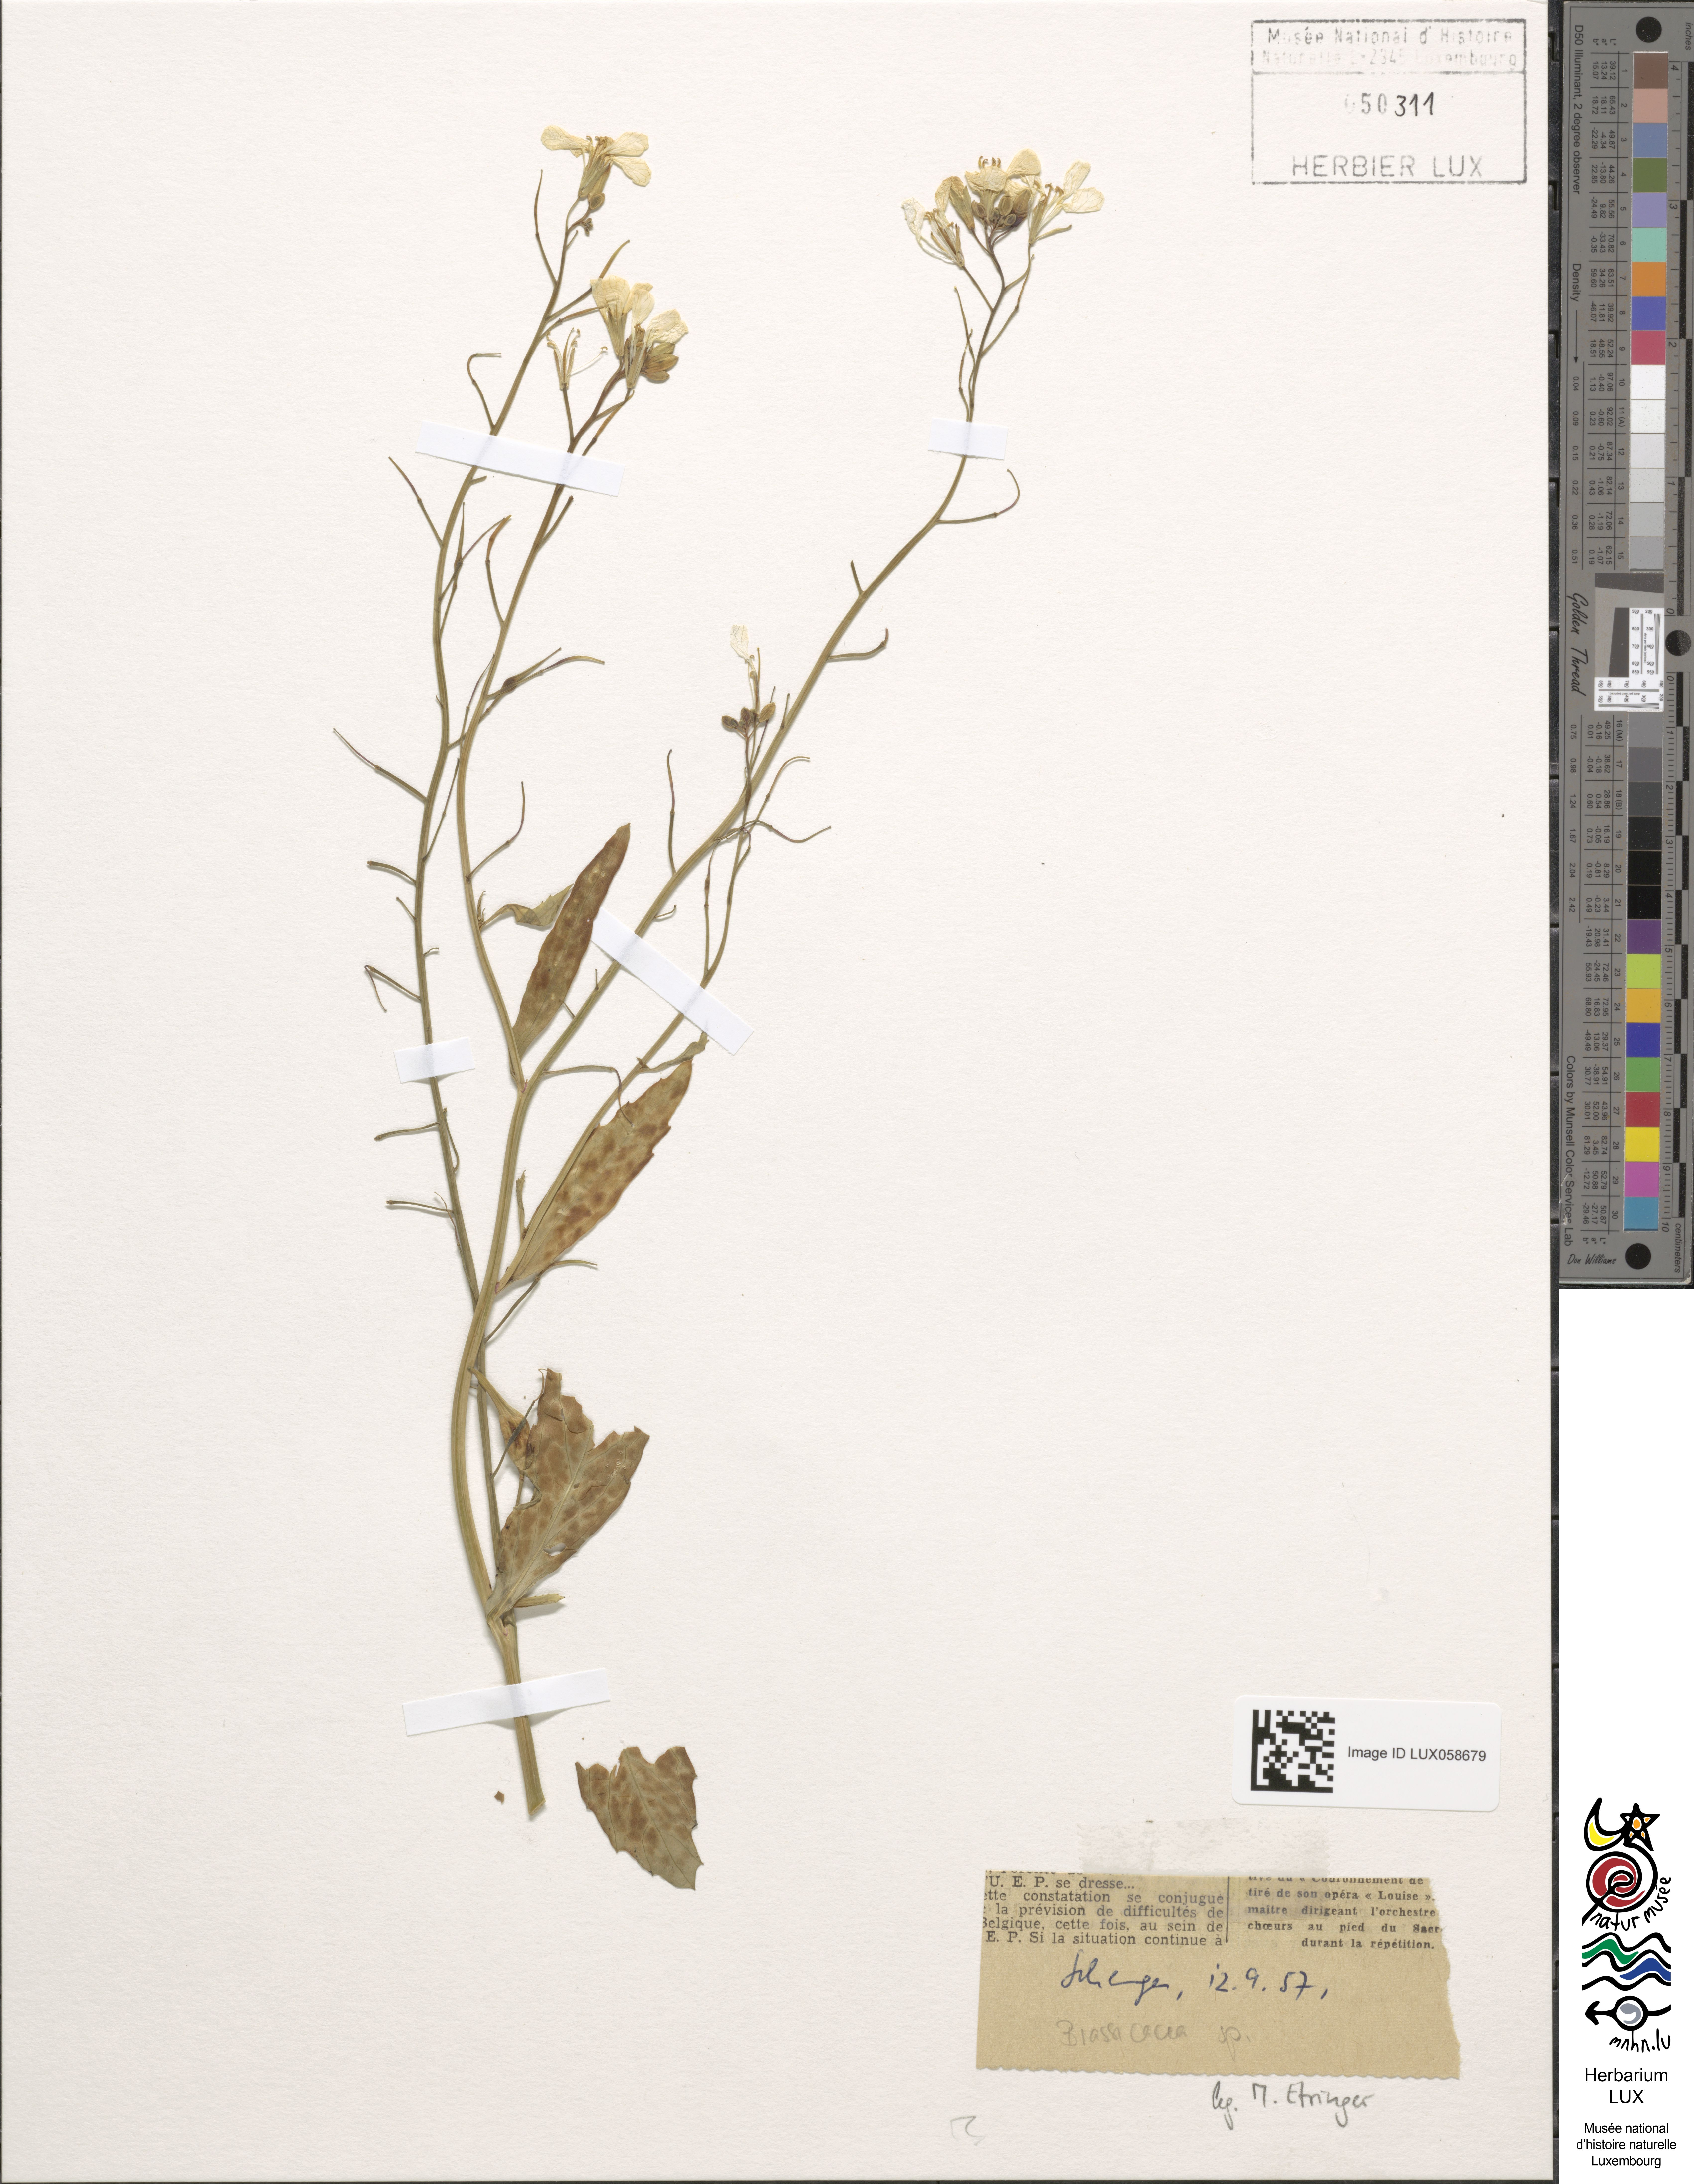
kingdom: Plantae
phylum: Tracheophyta
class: Magnoliopsida
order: Brassicales
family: Brassicaceae
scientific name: Brassicaceae
